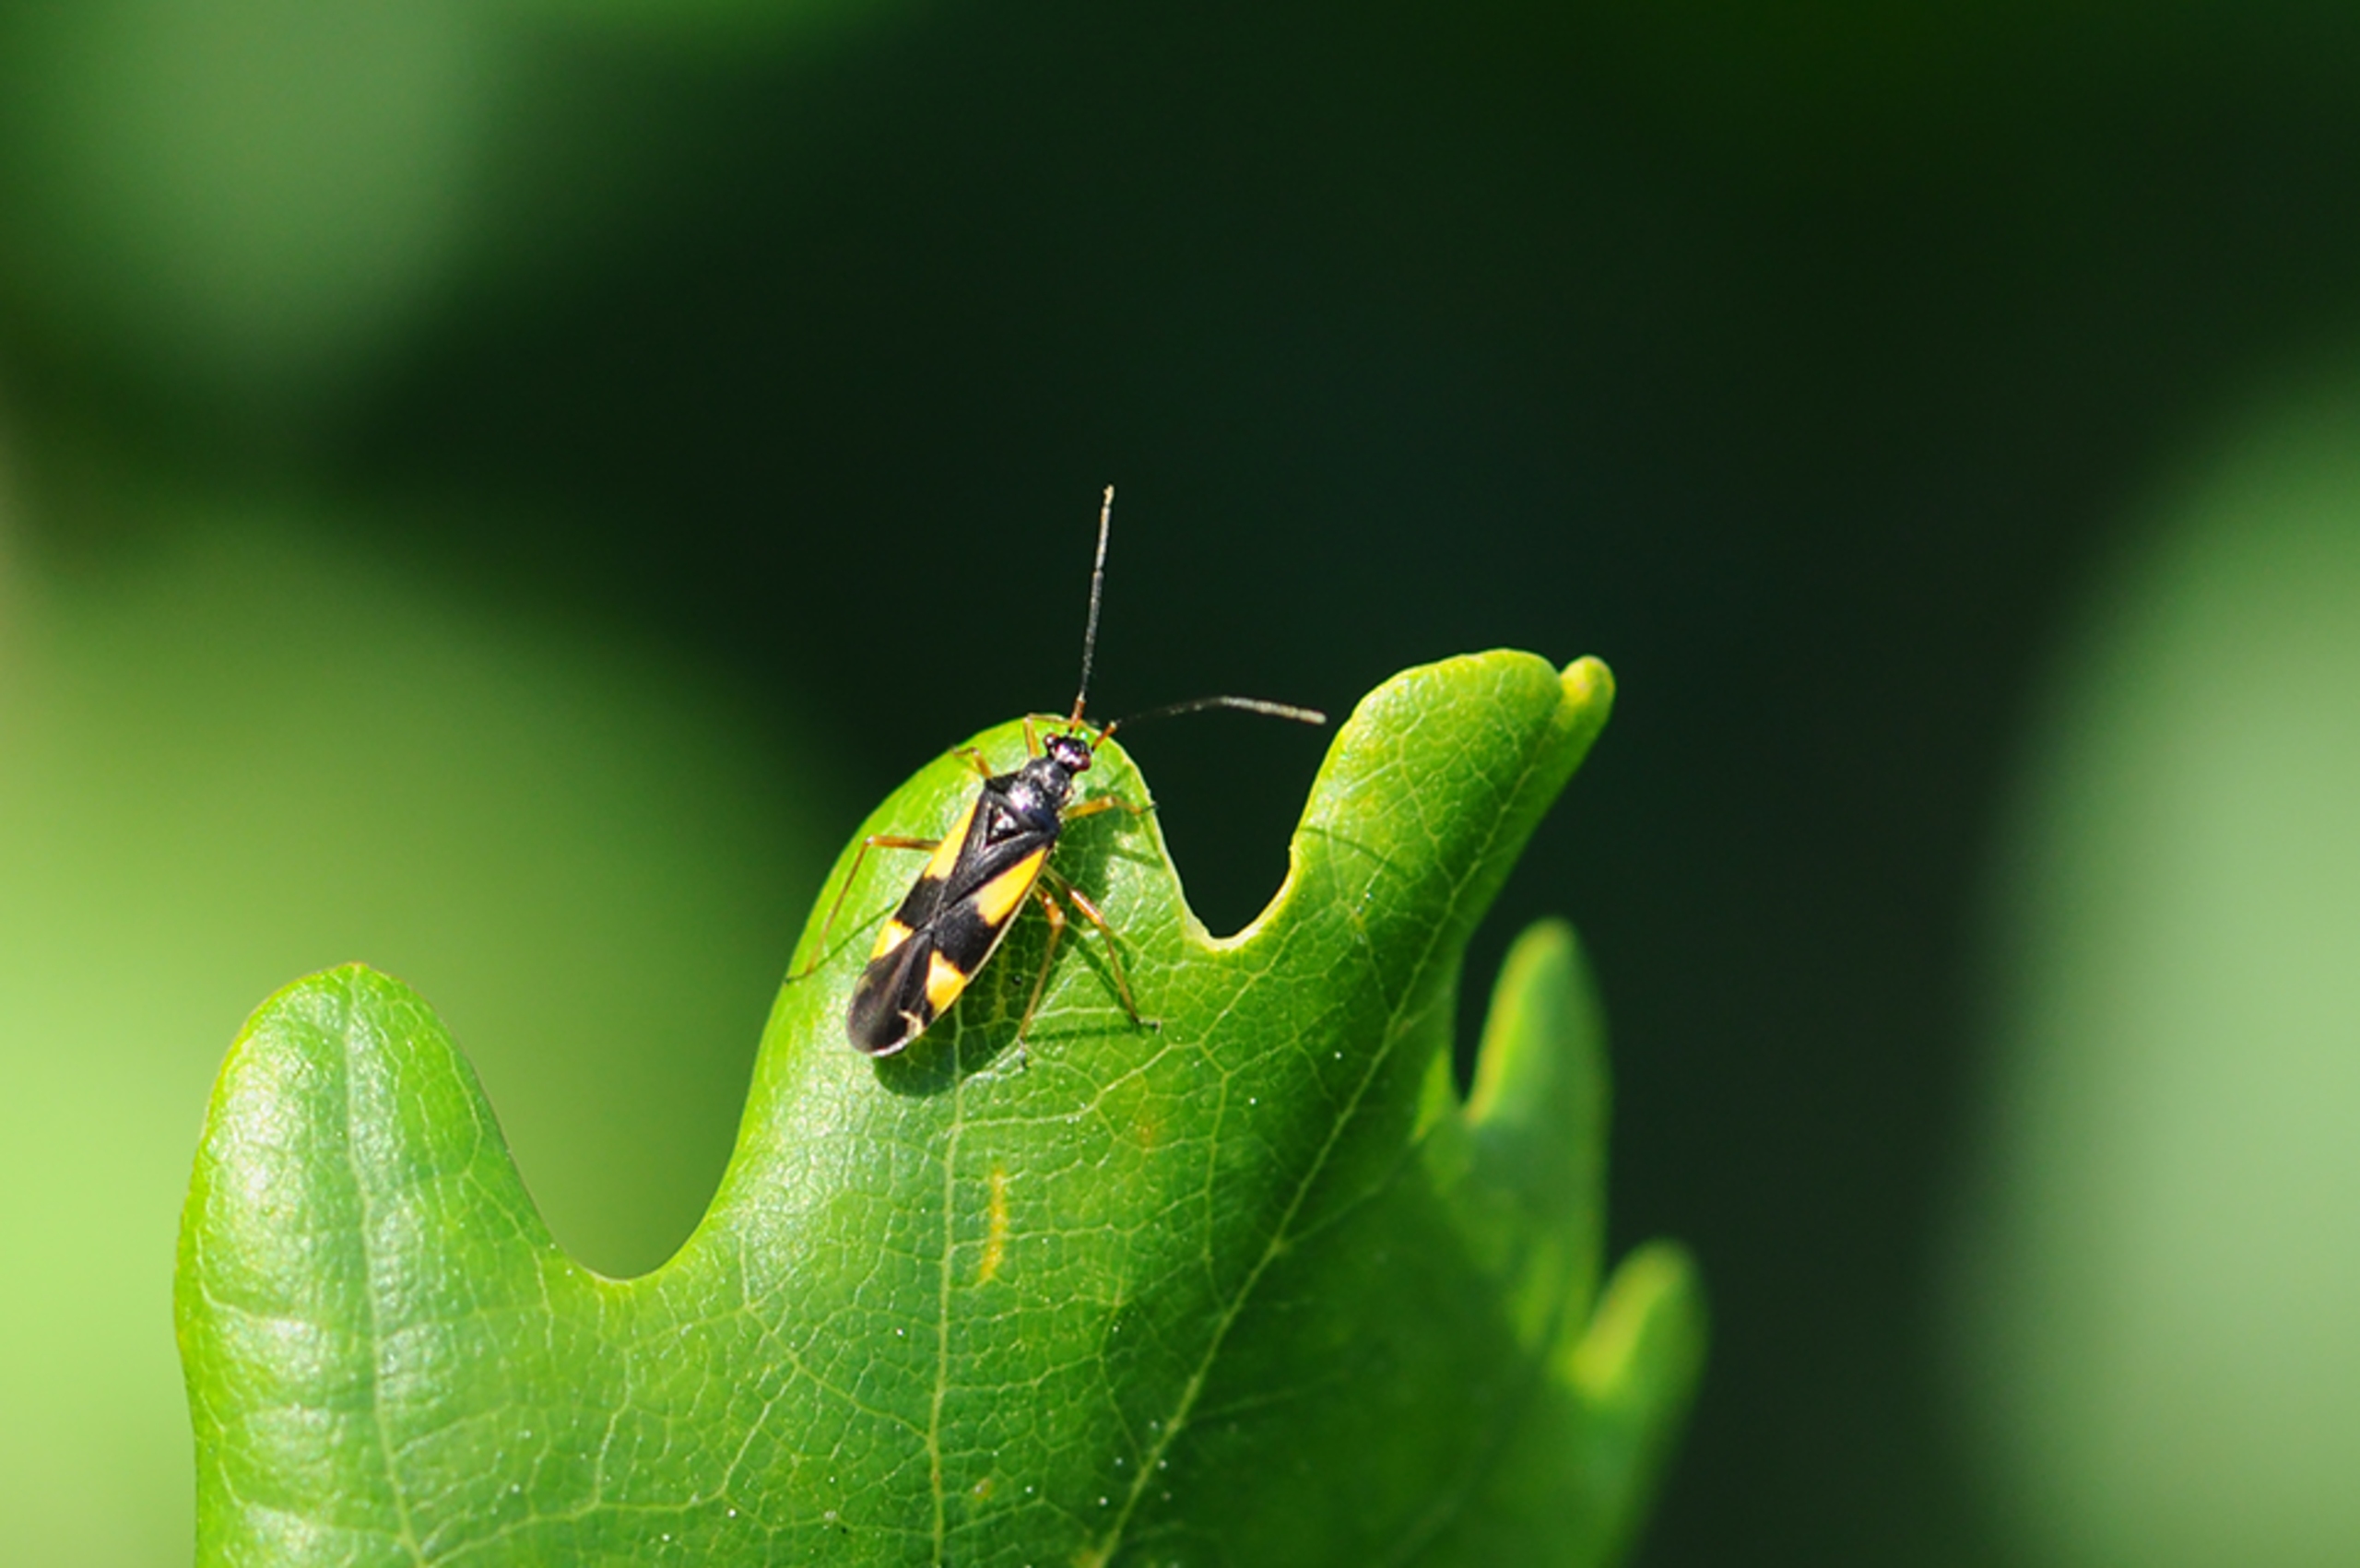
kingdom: Animalia
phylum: Arthropoda
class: Insecta
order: Hemiptera
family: Miridae
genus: Dryophilocoris
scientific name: Dryophilocoris flavoquadrimaculatus
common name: Fireplettet blomstertæge
